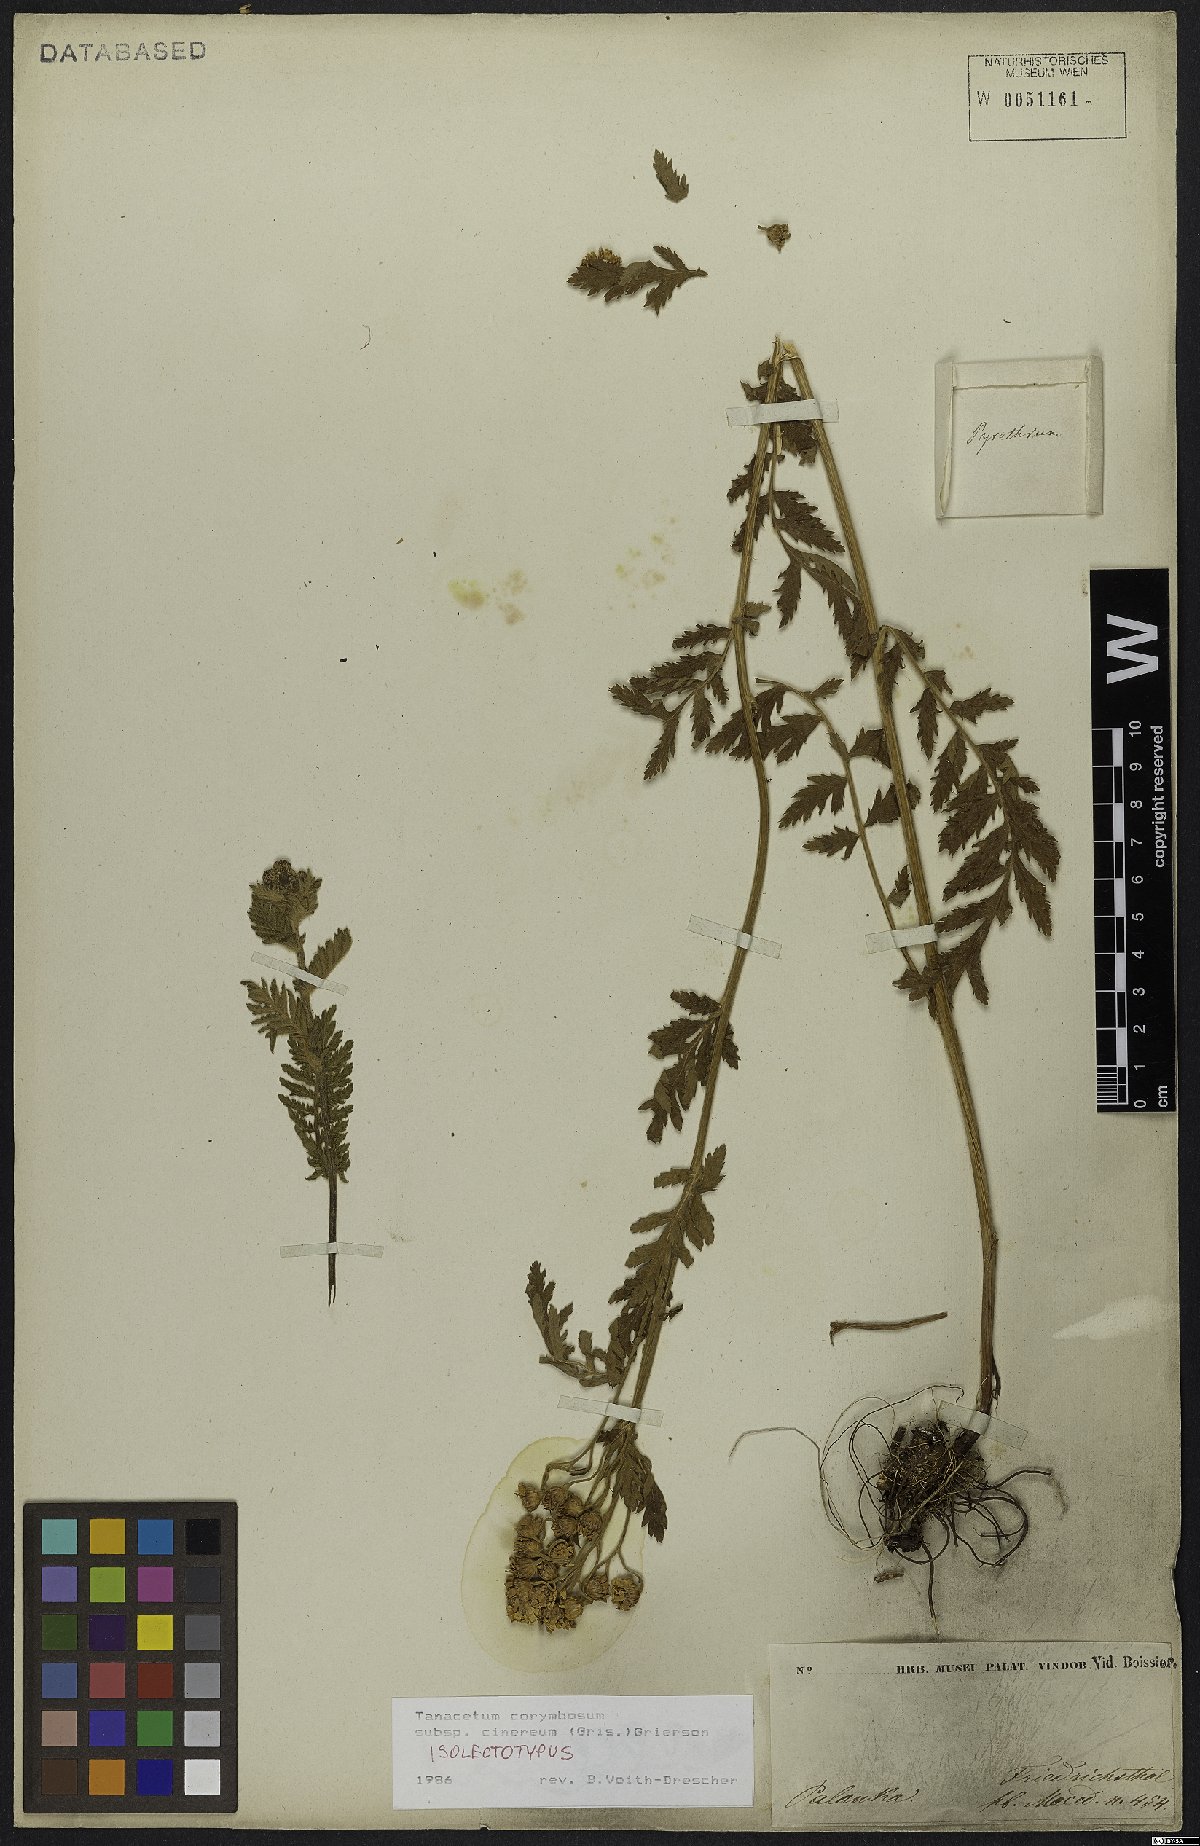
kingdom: Plantae
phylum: Tracheophyta
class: Magnoliopsida
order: Asterales
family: Asteraceae
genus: Tanacetum
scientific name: Tanacetum corymbosum
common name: Scentless feverfew
